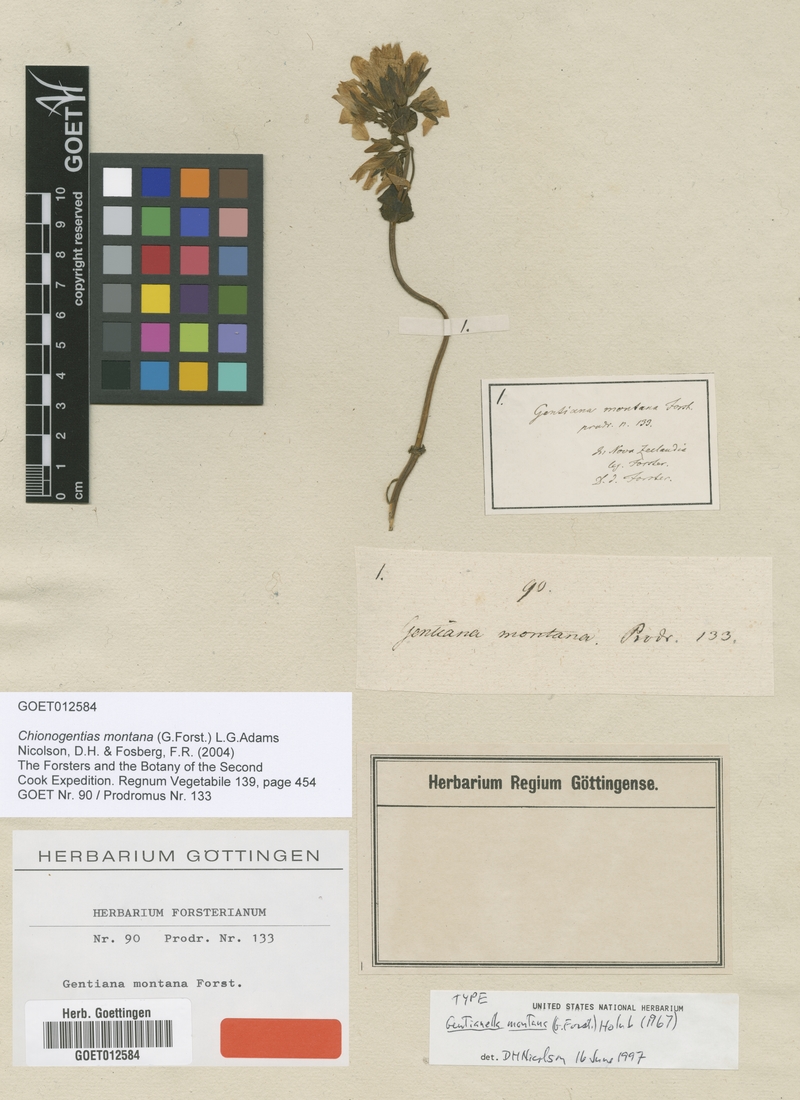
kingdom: Plantae
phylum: Tracheophyta
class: Magnoliopsida
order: Gentianales
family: Gentianaceae
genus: Gentianella
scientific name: Gentianella montana
